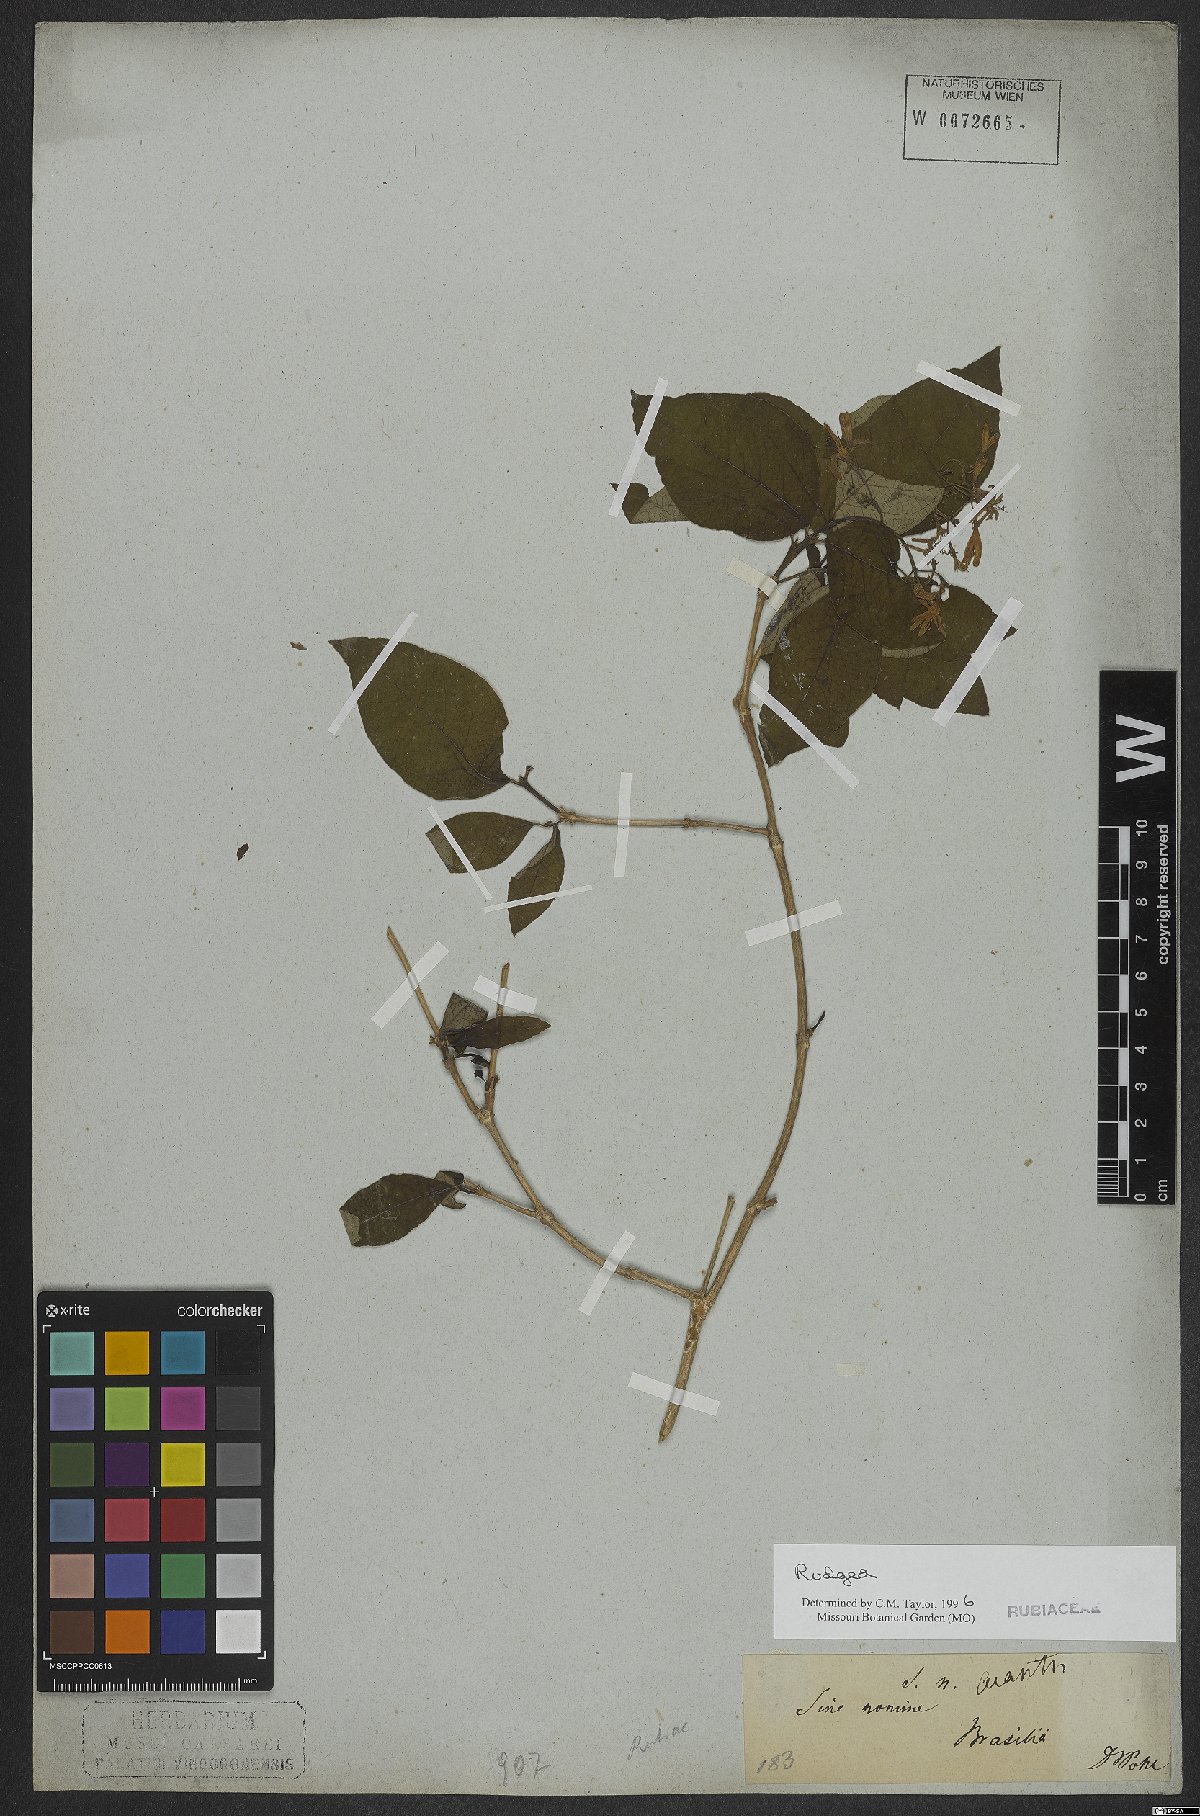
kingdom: Plantae
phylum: Tracheophyta
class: Magnoliopsida
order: Gentianales
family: Rubiaceae
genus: Rudgea
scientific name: Rudgea
